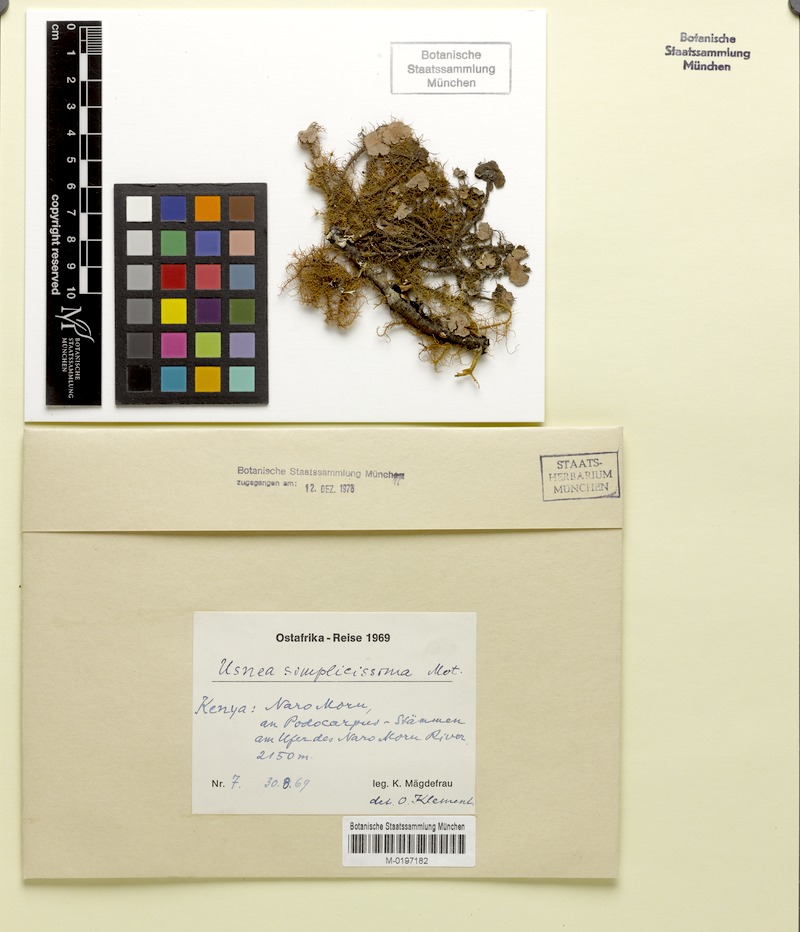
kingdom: Fungi
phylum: Ascomycota
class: Lecanoromycetes
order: Lecanorales
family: Parmeliaceae
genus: Usnea
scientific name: Usnea
